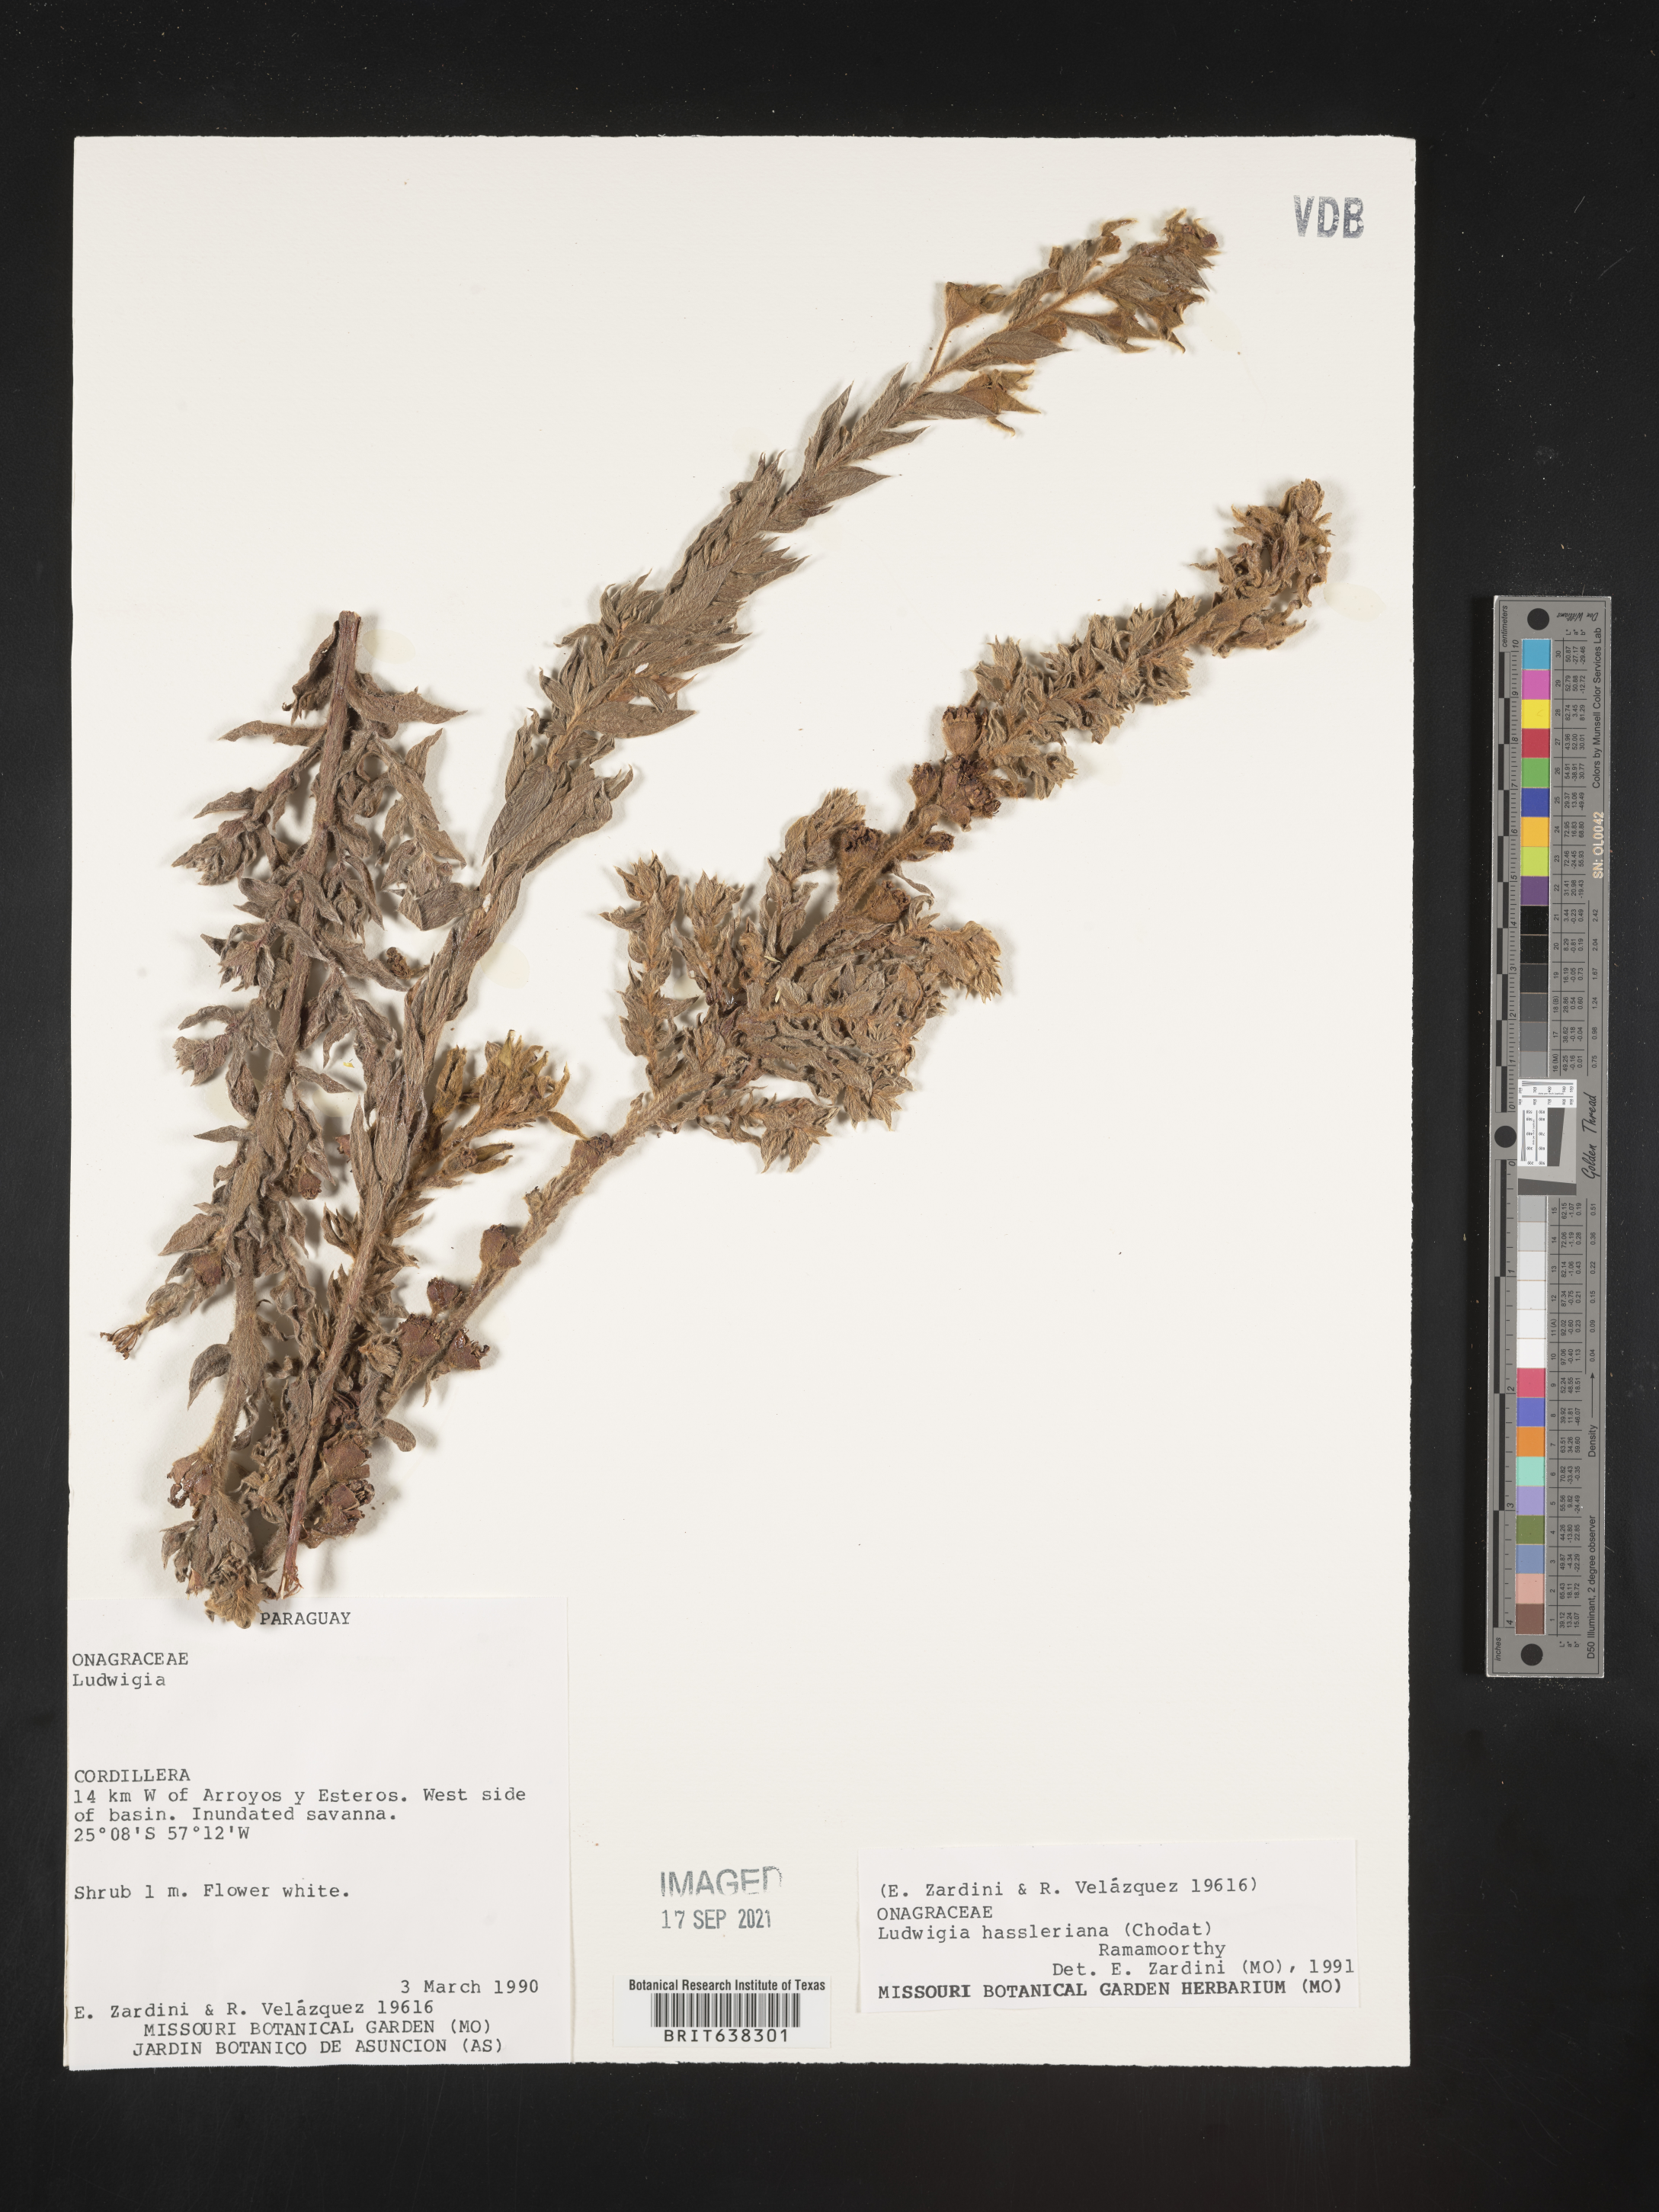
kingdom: Plantae
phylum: Tracheophyta
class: Magnoliopsida
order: Myrtales
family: Onagraceae
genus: Ludwigia
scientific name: Ludwigia
